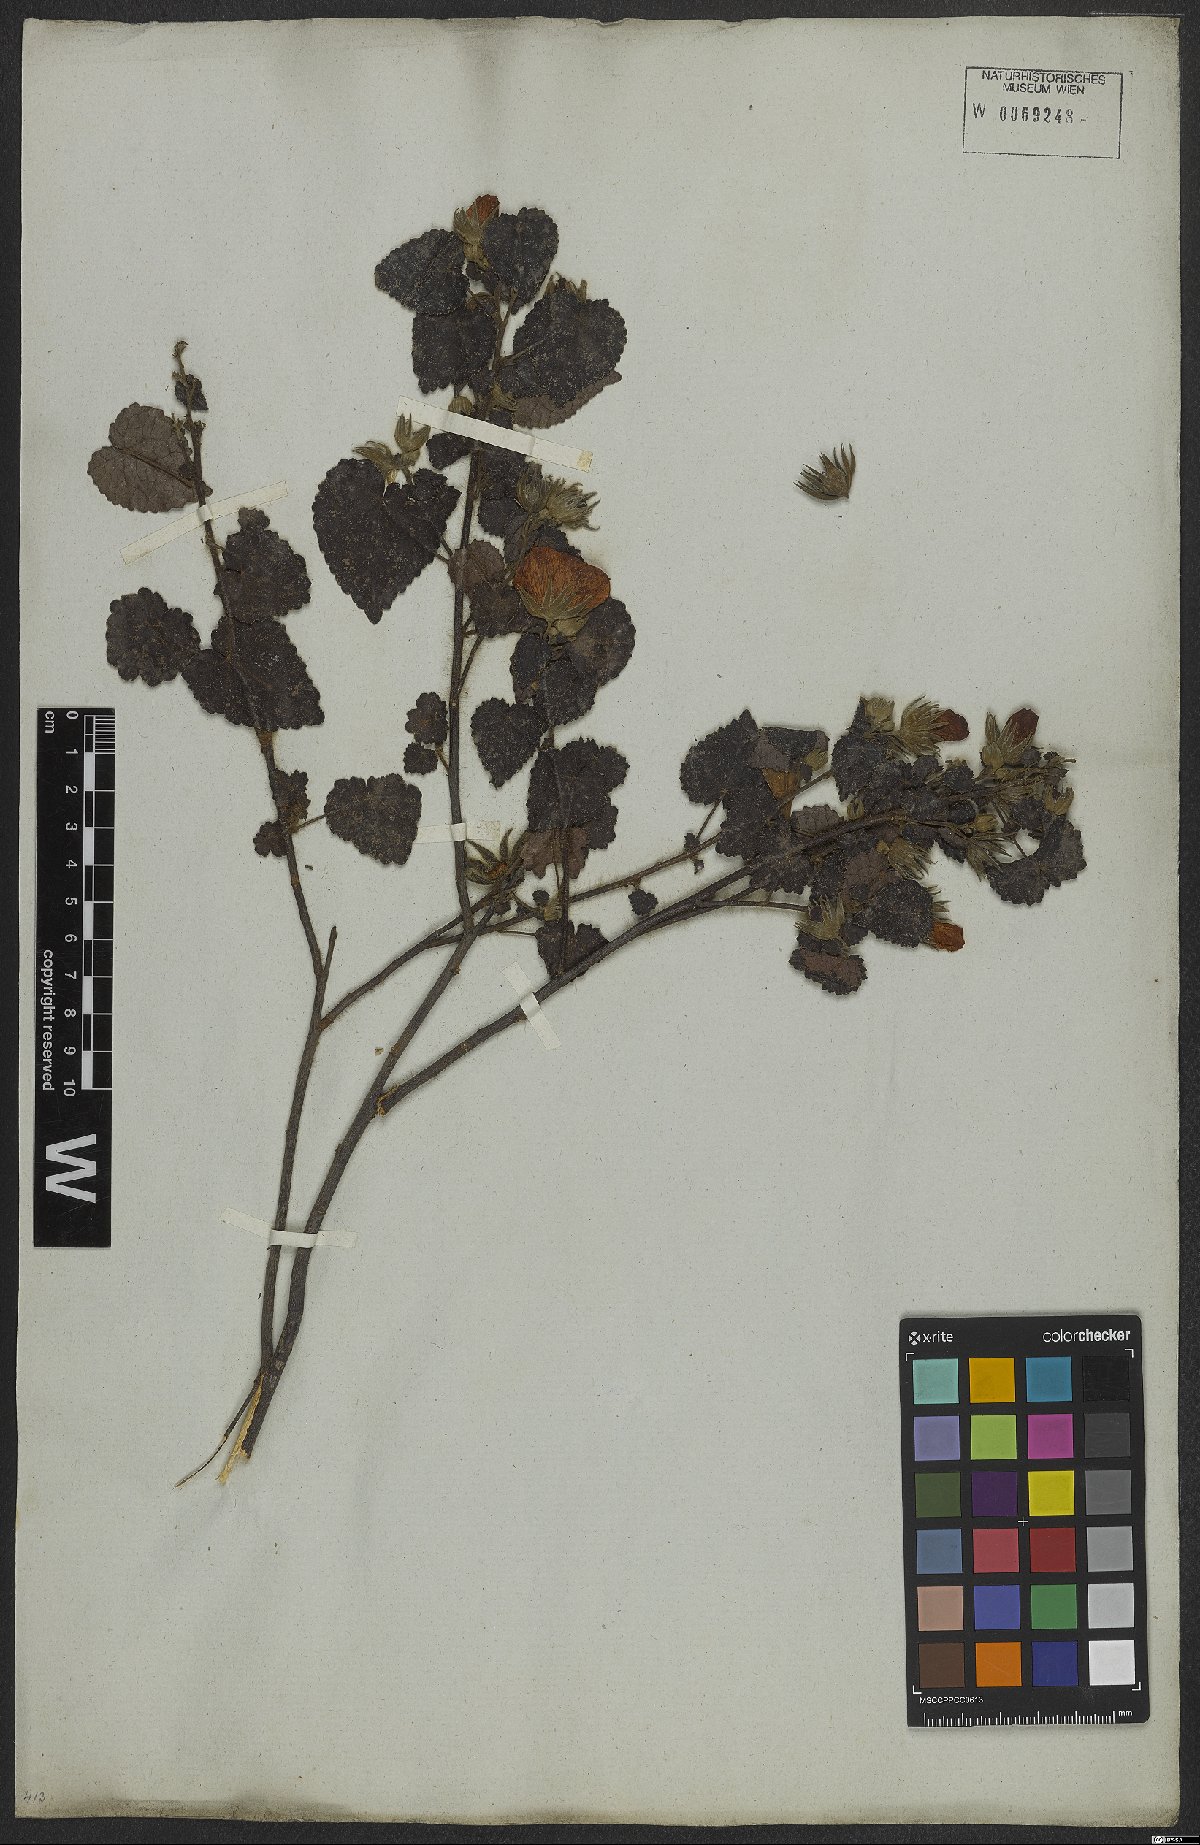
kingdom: Plantae
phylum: Tracheophyta
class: Magnoliopsida
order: Malvales
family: Malvaceae
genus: Pavonia
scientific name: Pavonia rosa-campestris
